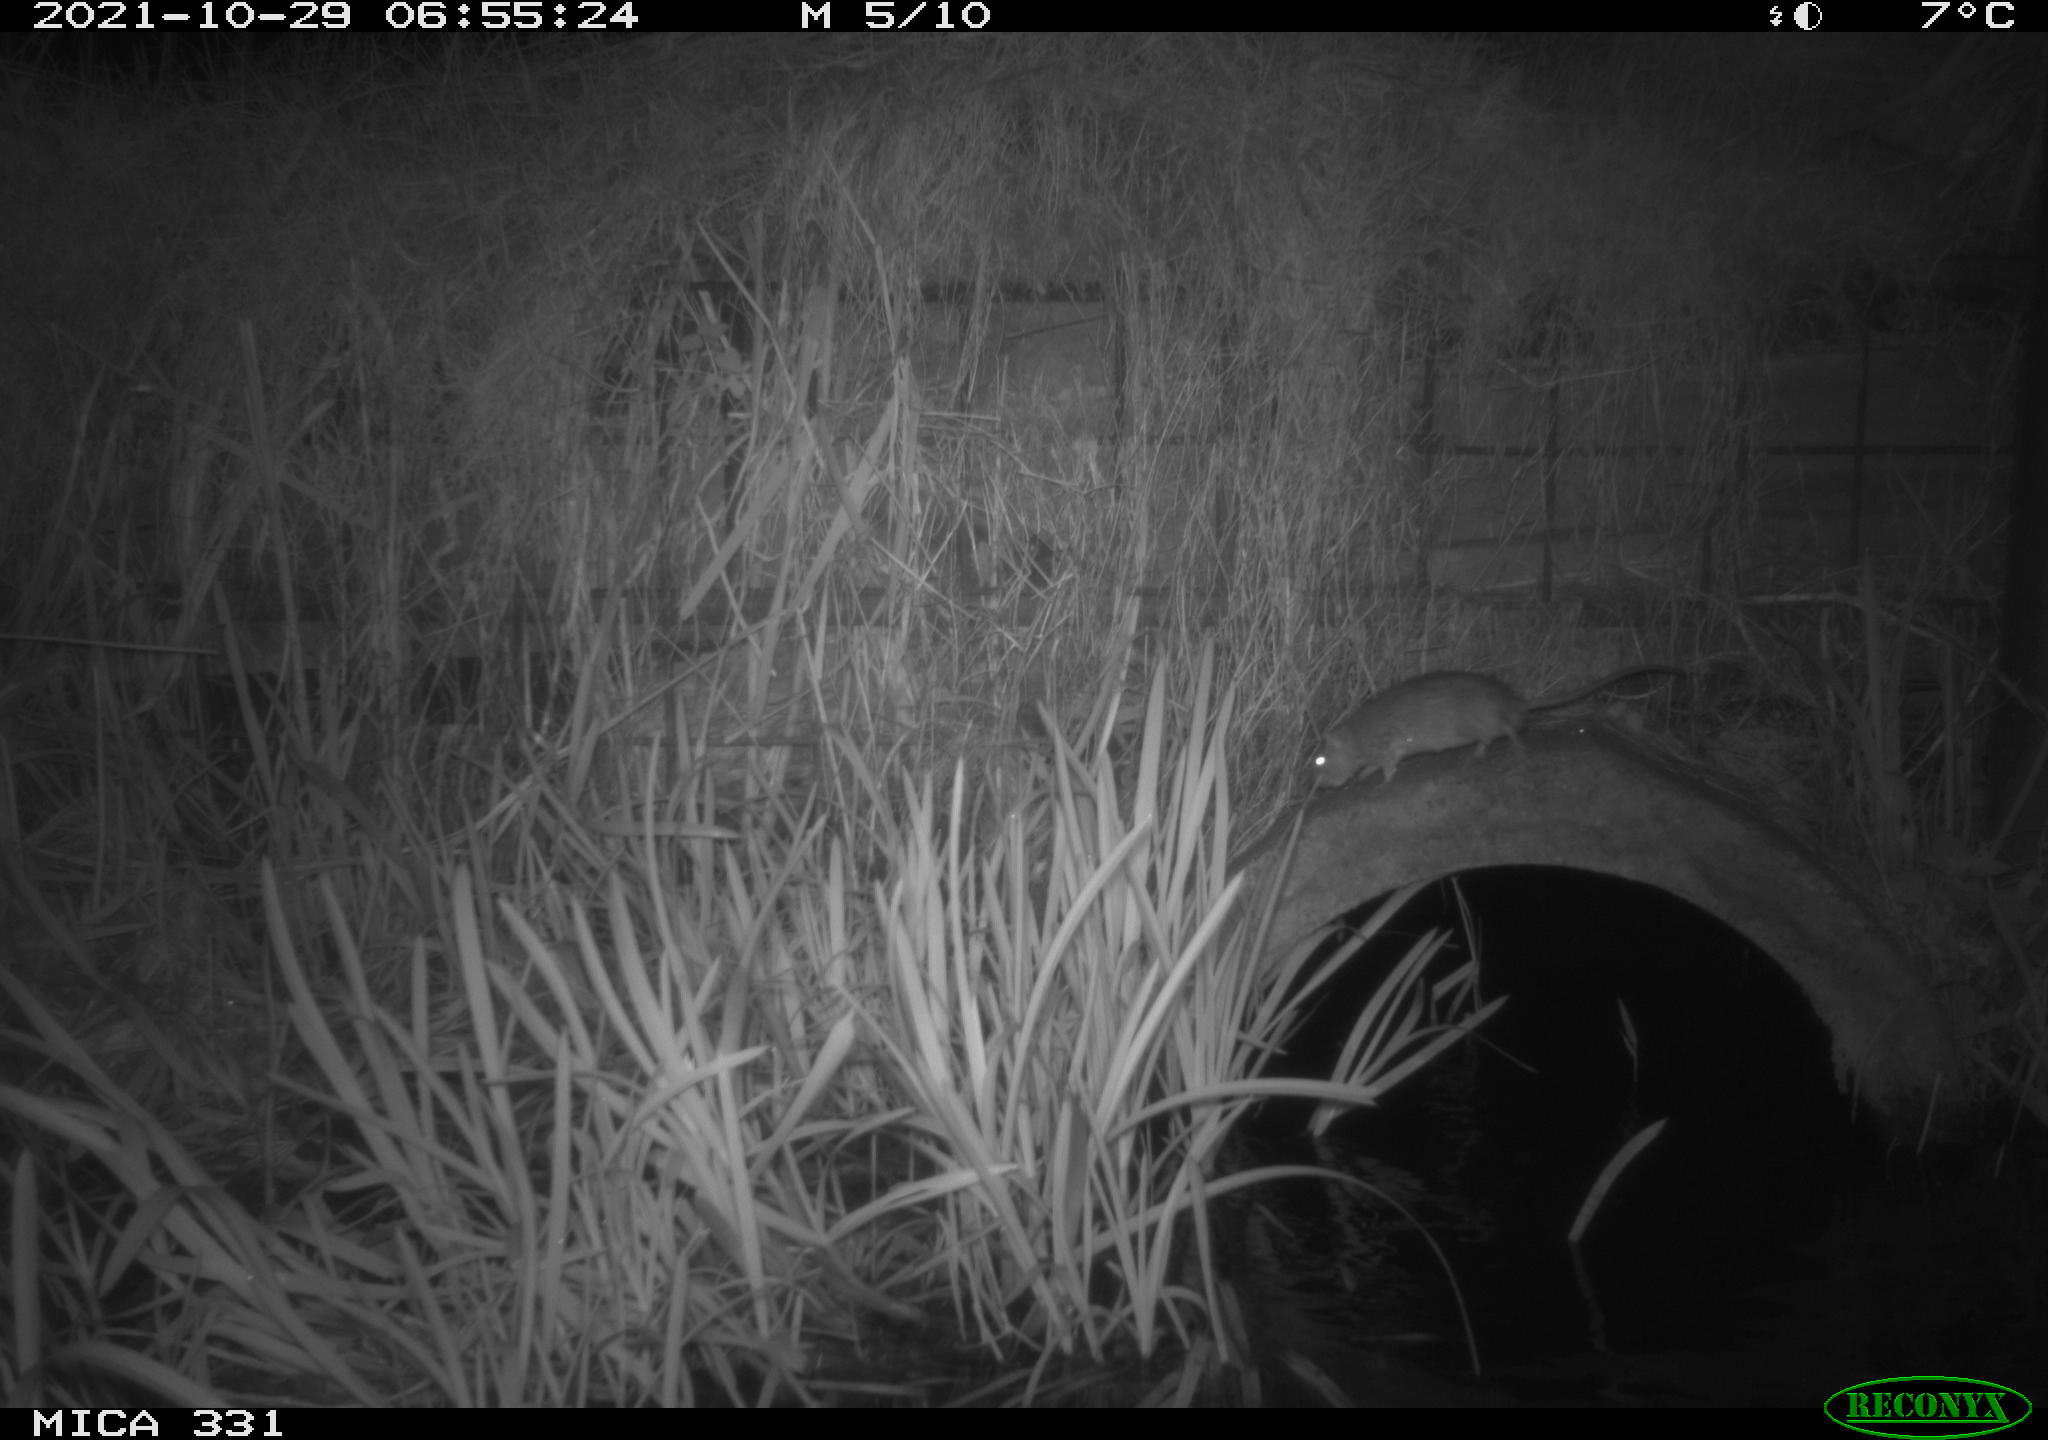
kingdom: Animalia
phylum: Chordata
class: Mammalia
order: Rodentia
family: Muridae
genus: Rattus
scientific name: Rattus norvegicus
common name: Brown rat
